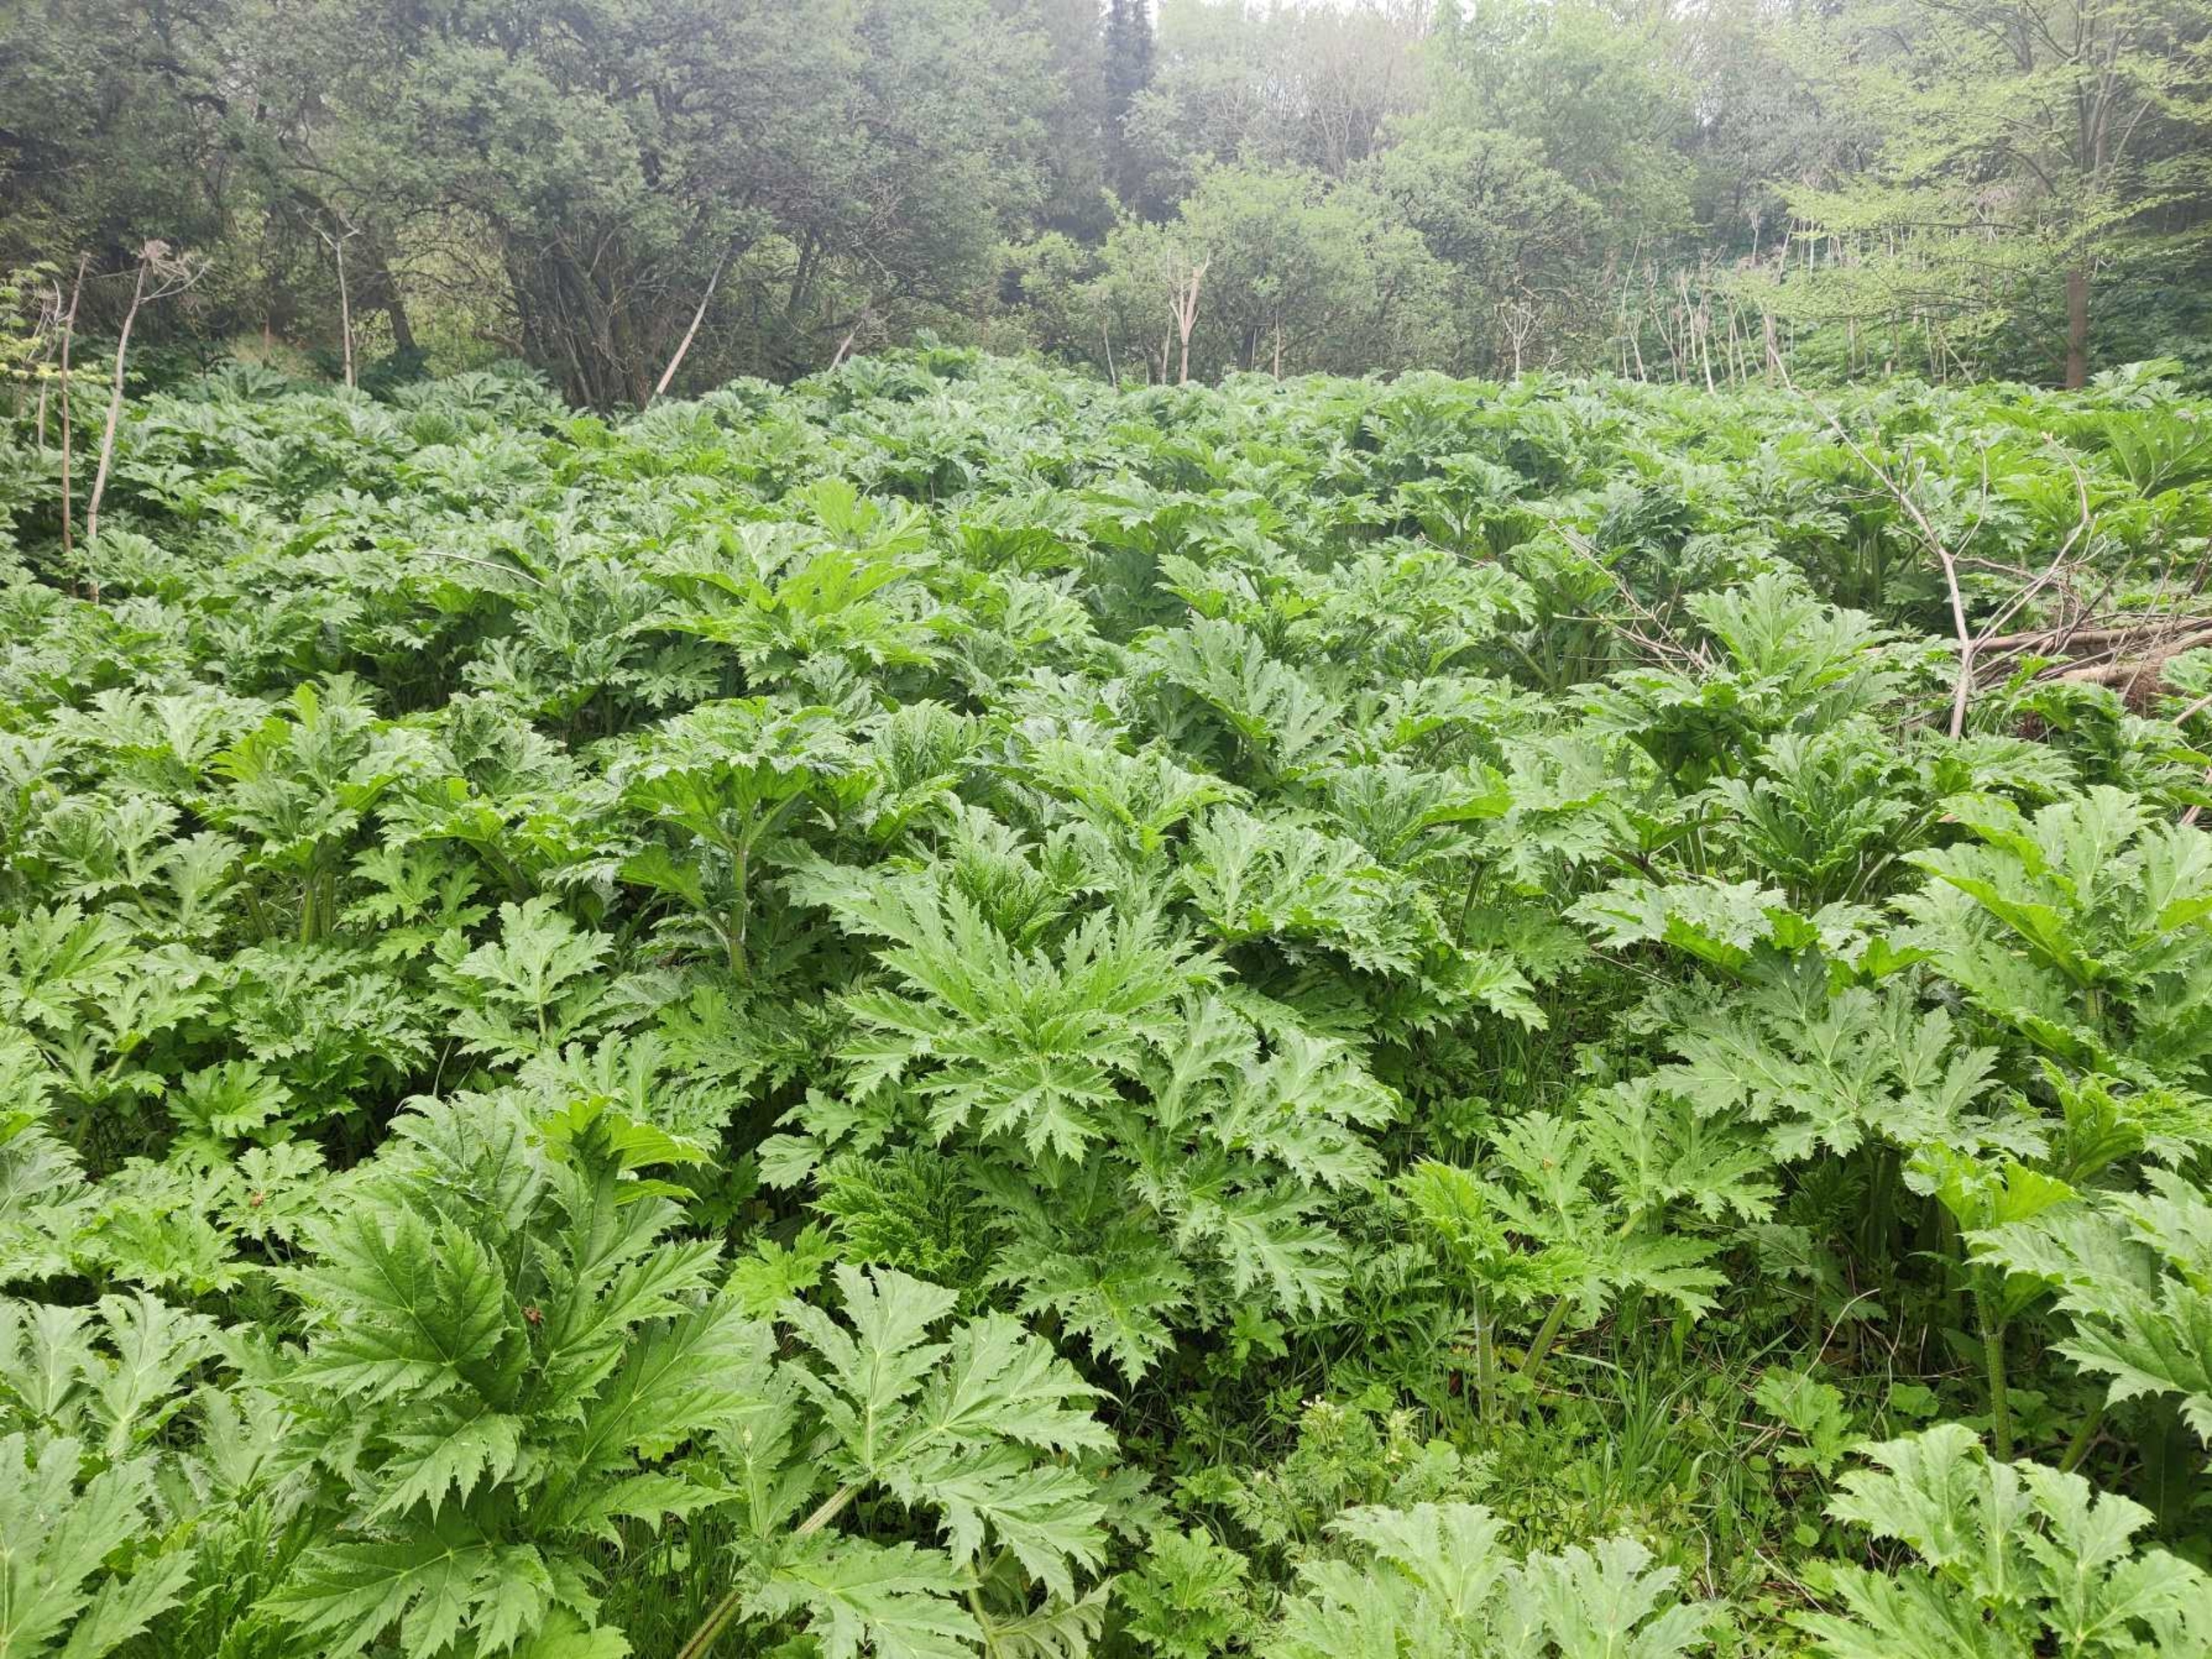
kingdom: Plantae
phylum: Tracheophyta
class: Magnoliopsida
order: Apiales
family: Apiaceae
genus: Heracleum
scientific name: Heracleum mantegazzianum
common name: Kæmpe-bjørneklo
